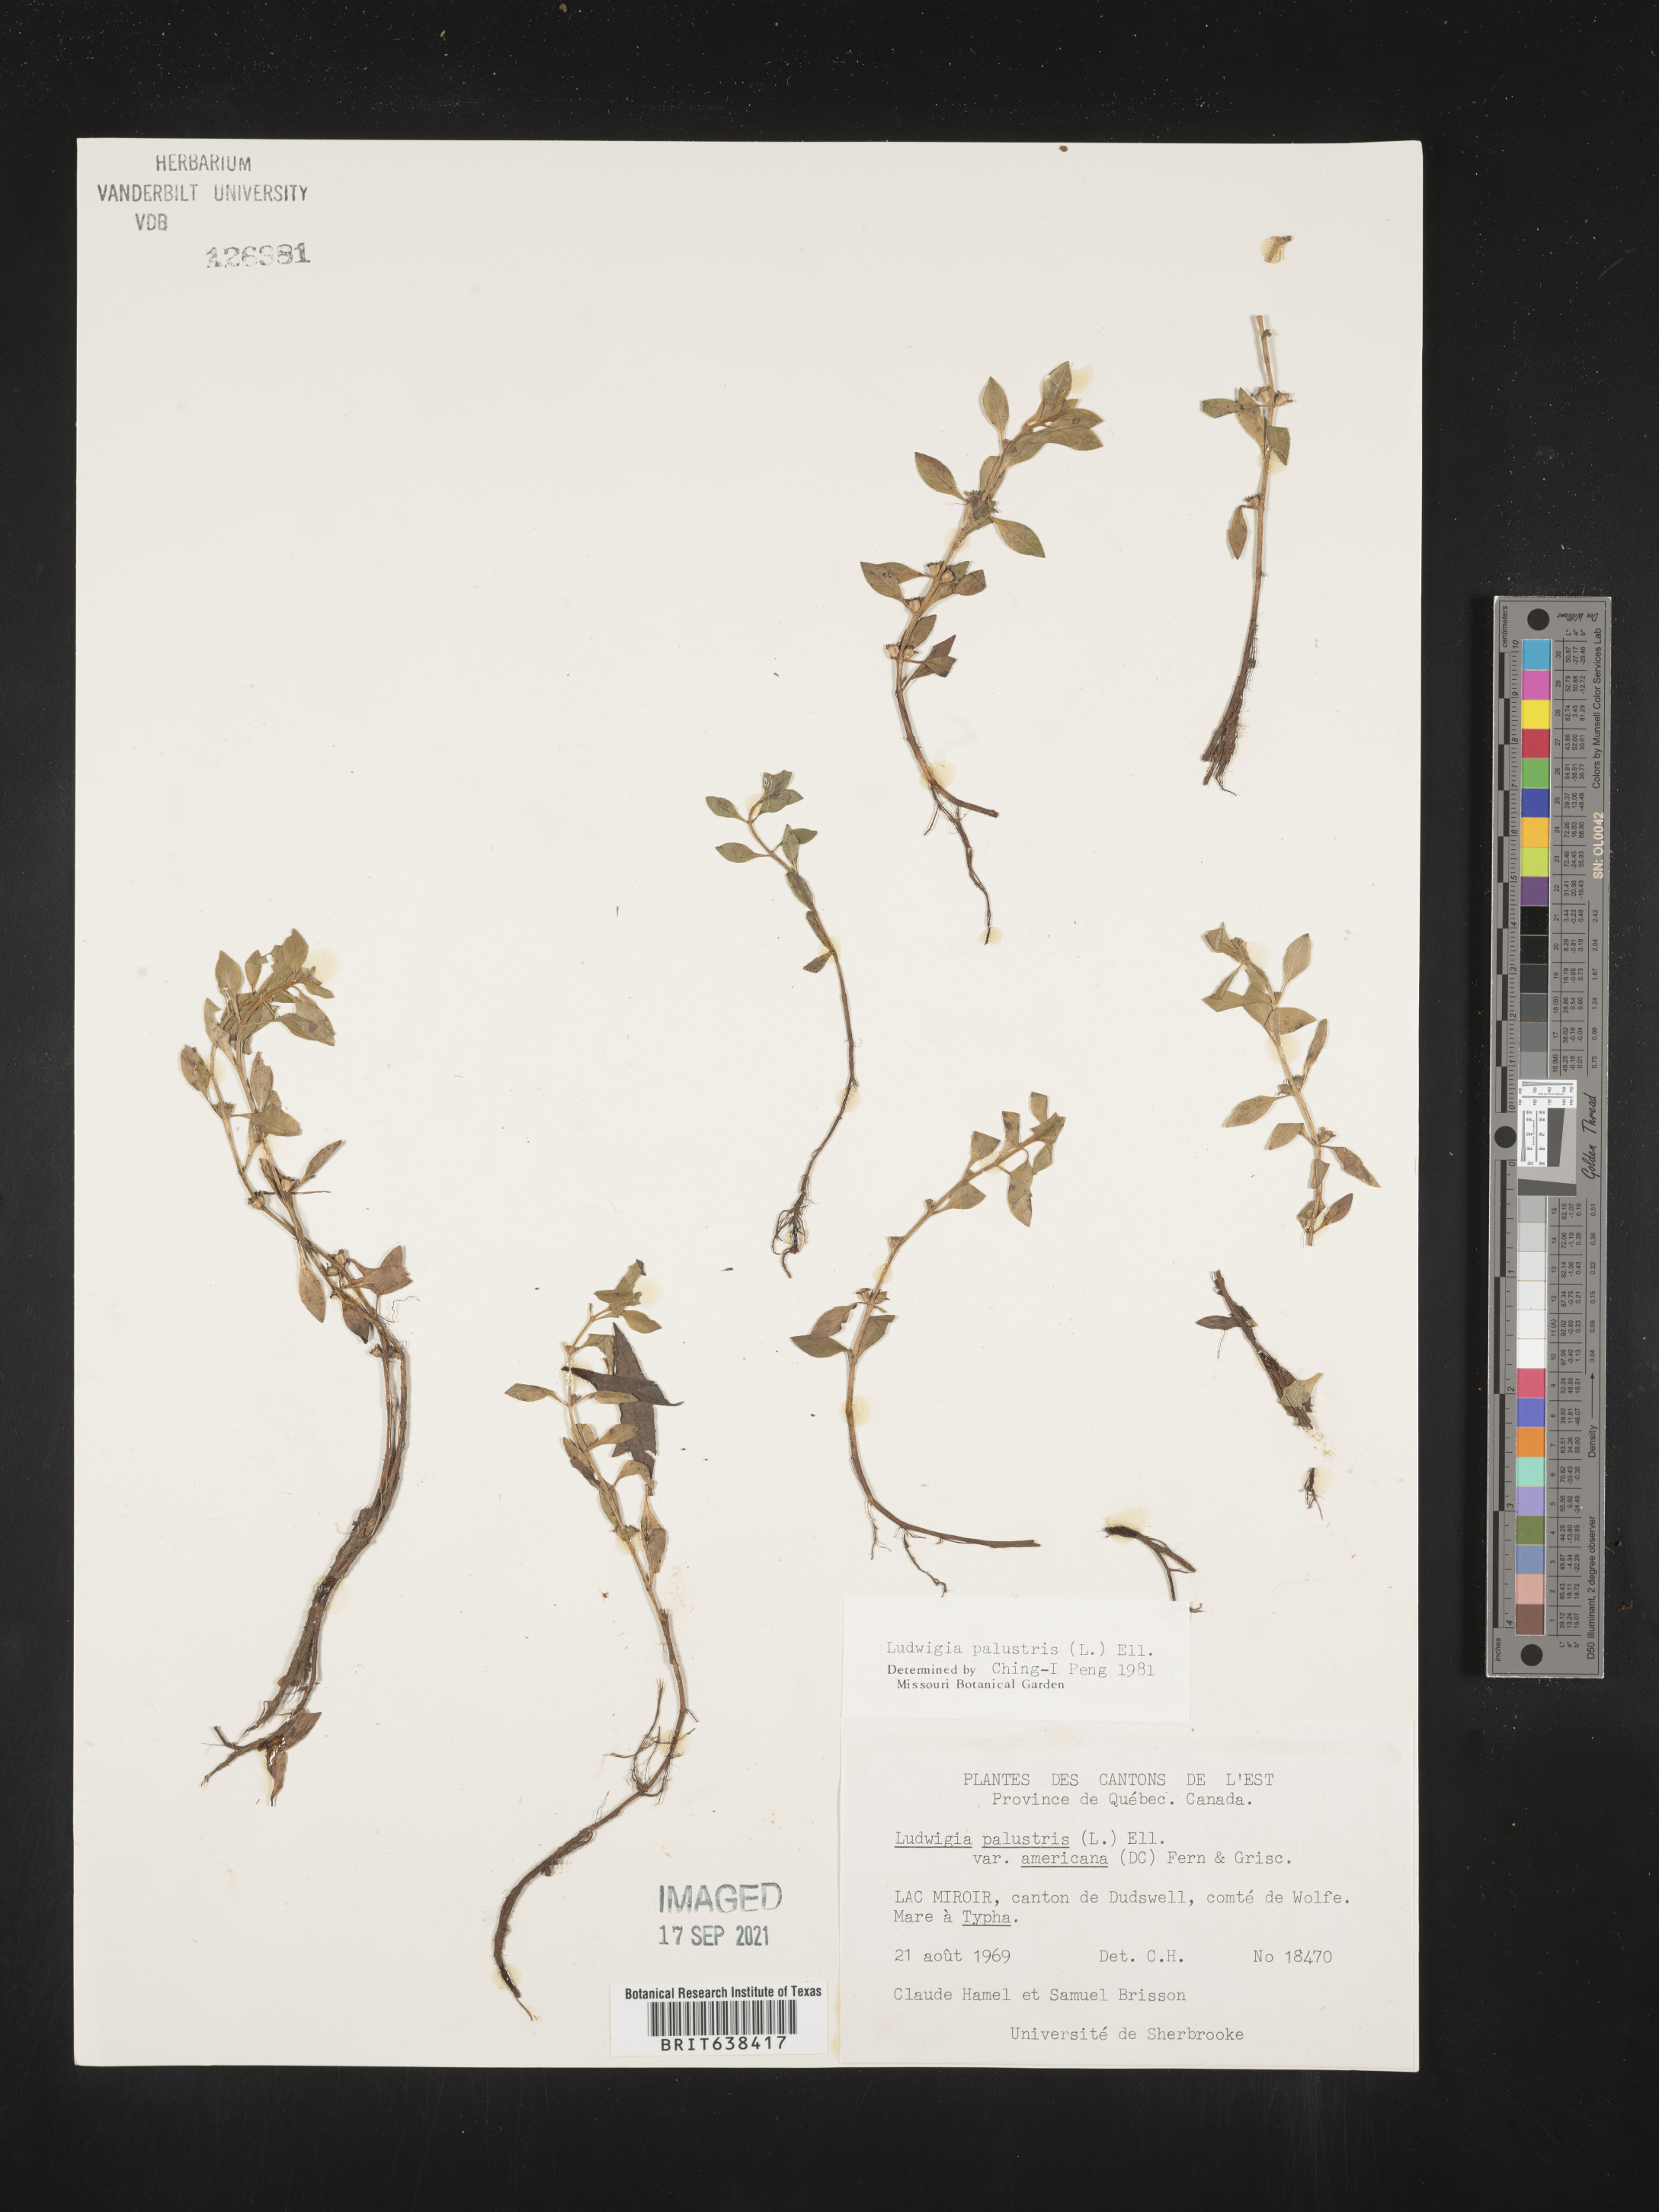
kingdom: Plantae
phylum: Tracheophyta
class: Magnoliopsida
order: Myrtales
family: Onagraceae
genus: Ludwigia
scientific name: Ludwigia
